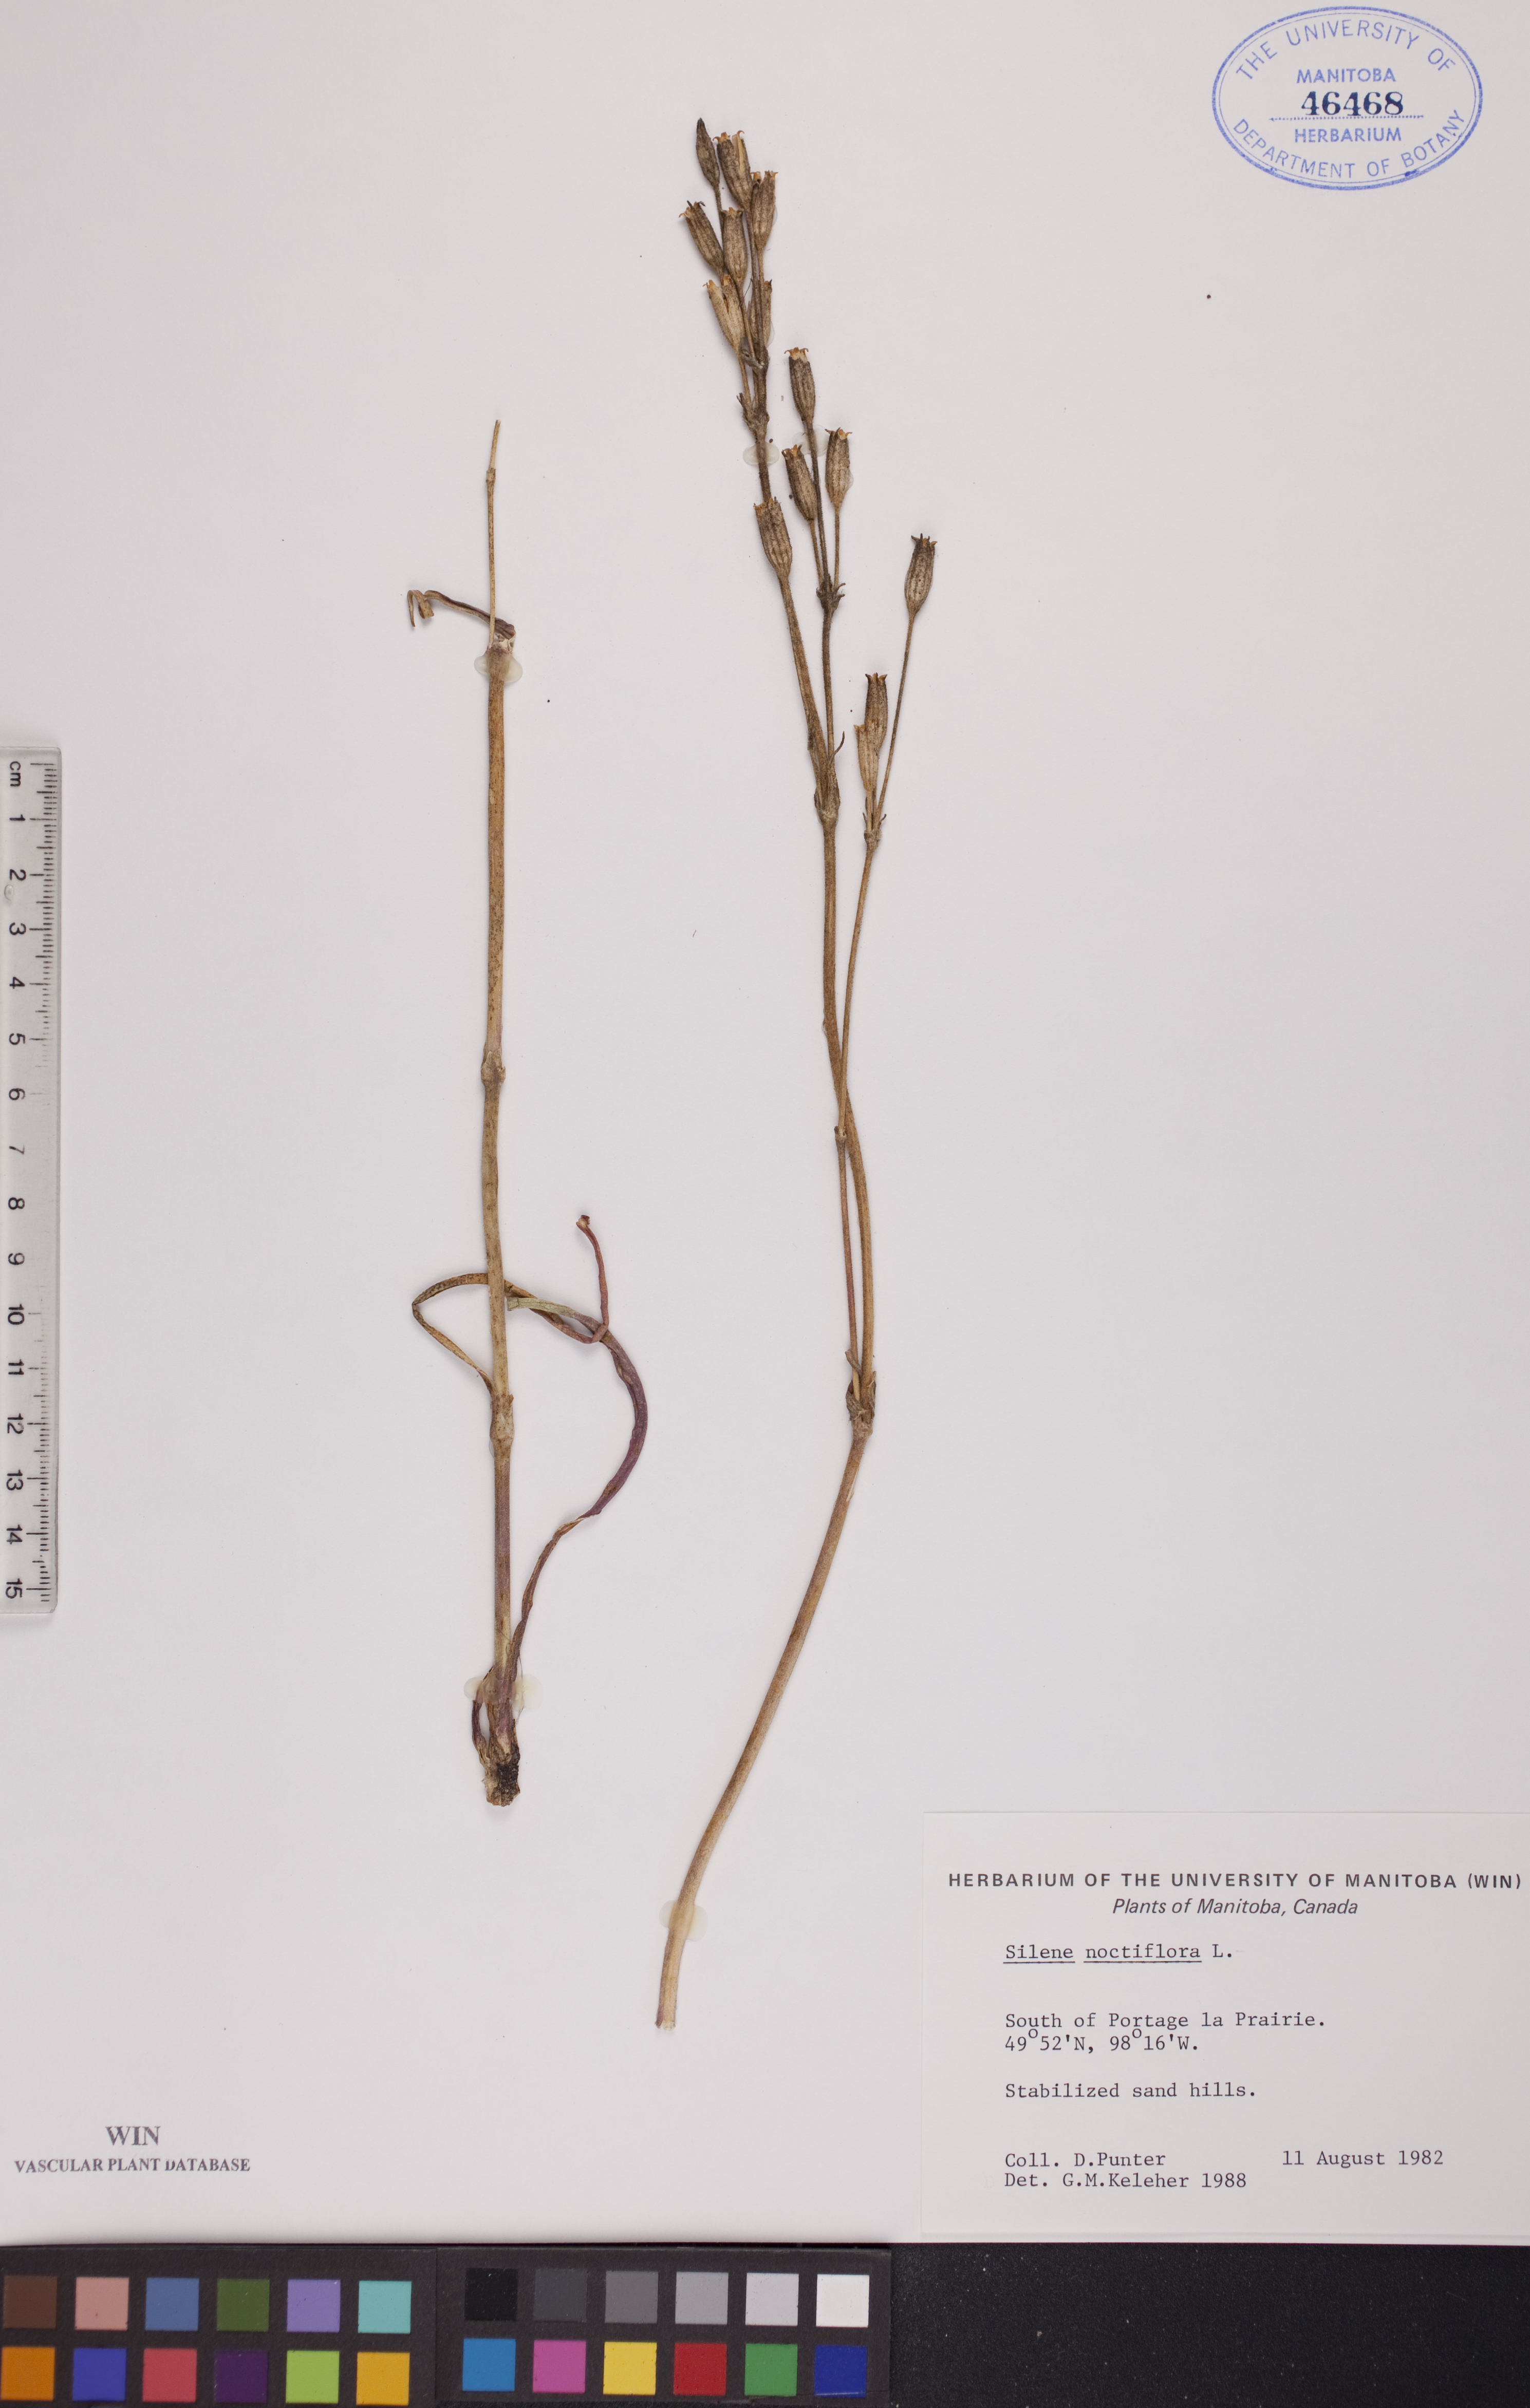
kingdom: Plantae
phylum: Tracheophyta
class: Magnoliopsida
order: Caryophyllales
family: Caryophyllaceae
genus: Silene
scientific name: Silene noctiflora
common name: Night-flowering catchfly
